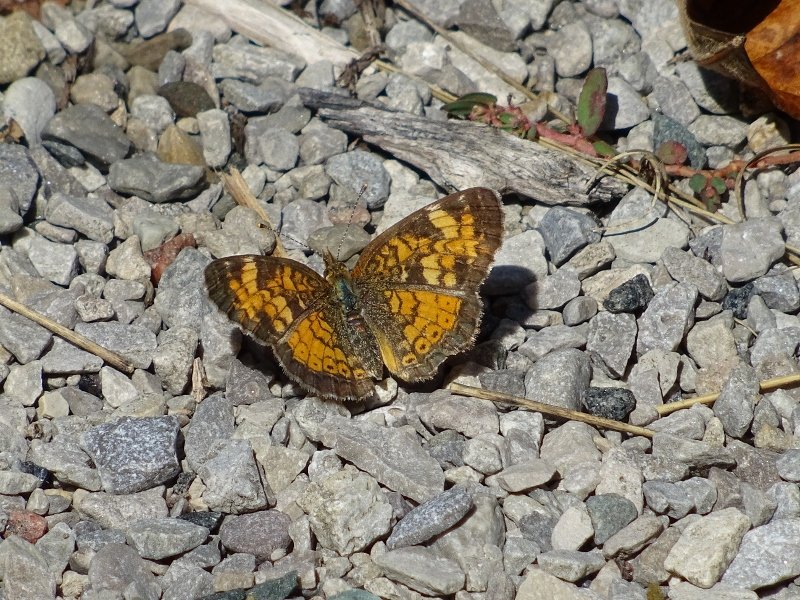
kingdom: Animalia
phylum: Arthropoda
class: Insecta
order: Lepidoptera
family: Nymphalidae
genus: Phyciodes
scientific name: Phyciodes tharos
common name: Northern Crescent
